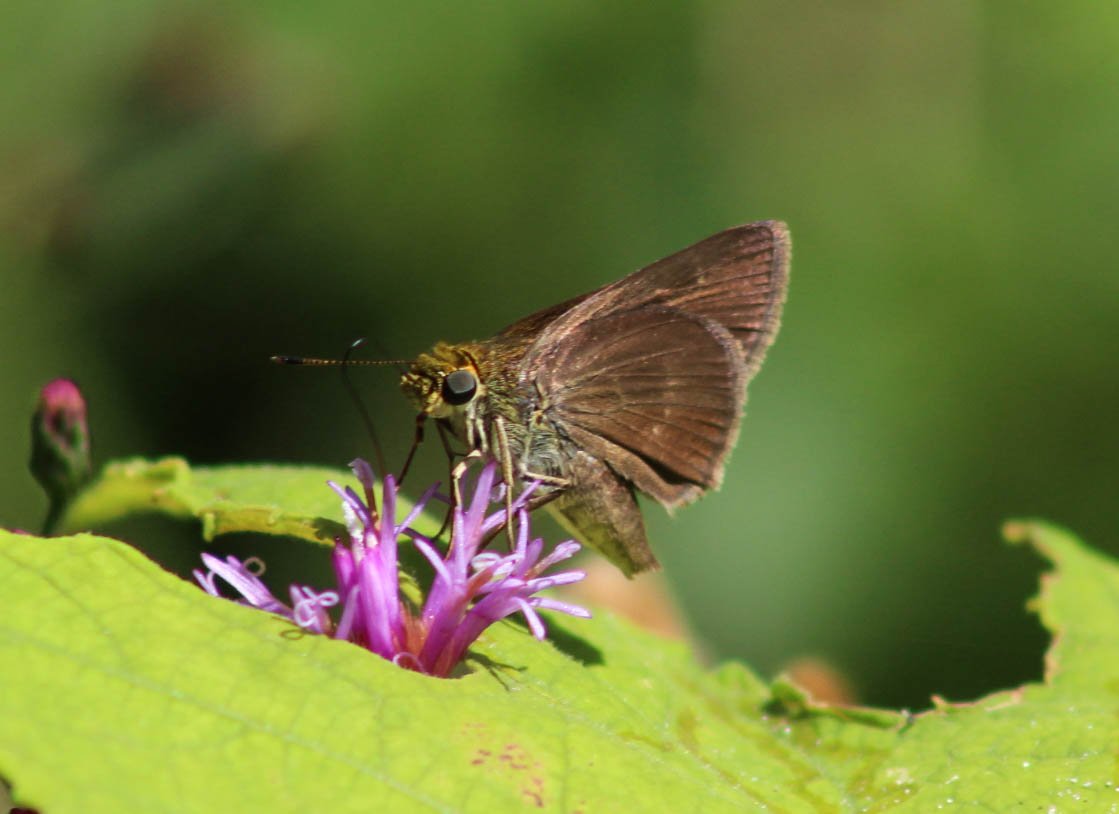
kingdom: Animalia
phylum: Arthropoda
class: Insecta
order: Lepidoptera
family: Hesperiidae
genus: Euphyes
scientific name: Euphyes vestris
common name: Dun Skipper
